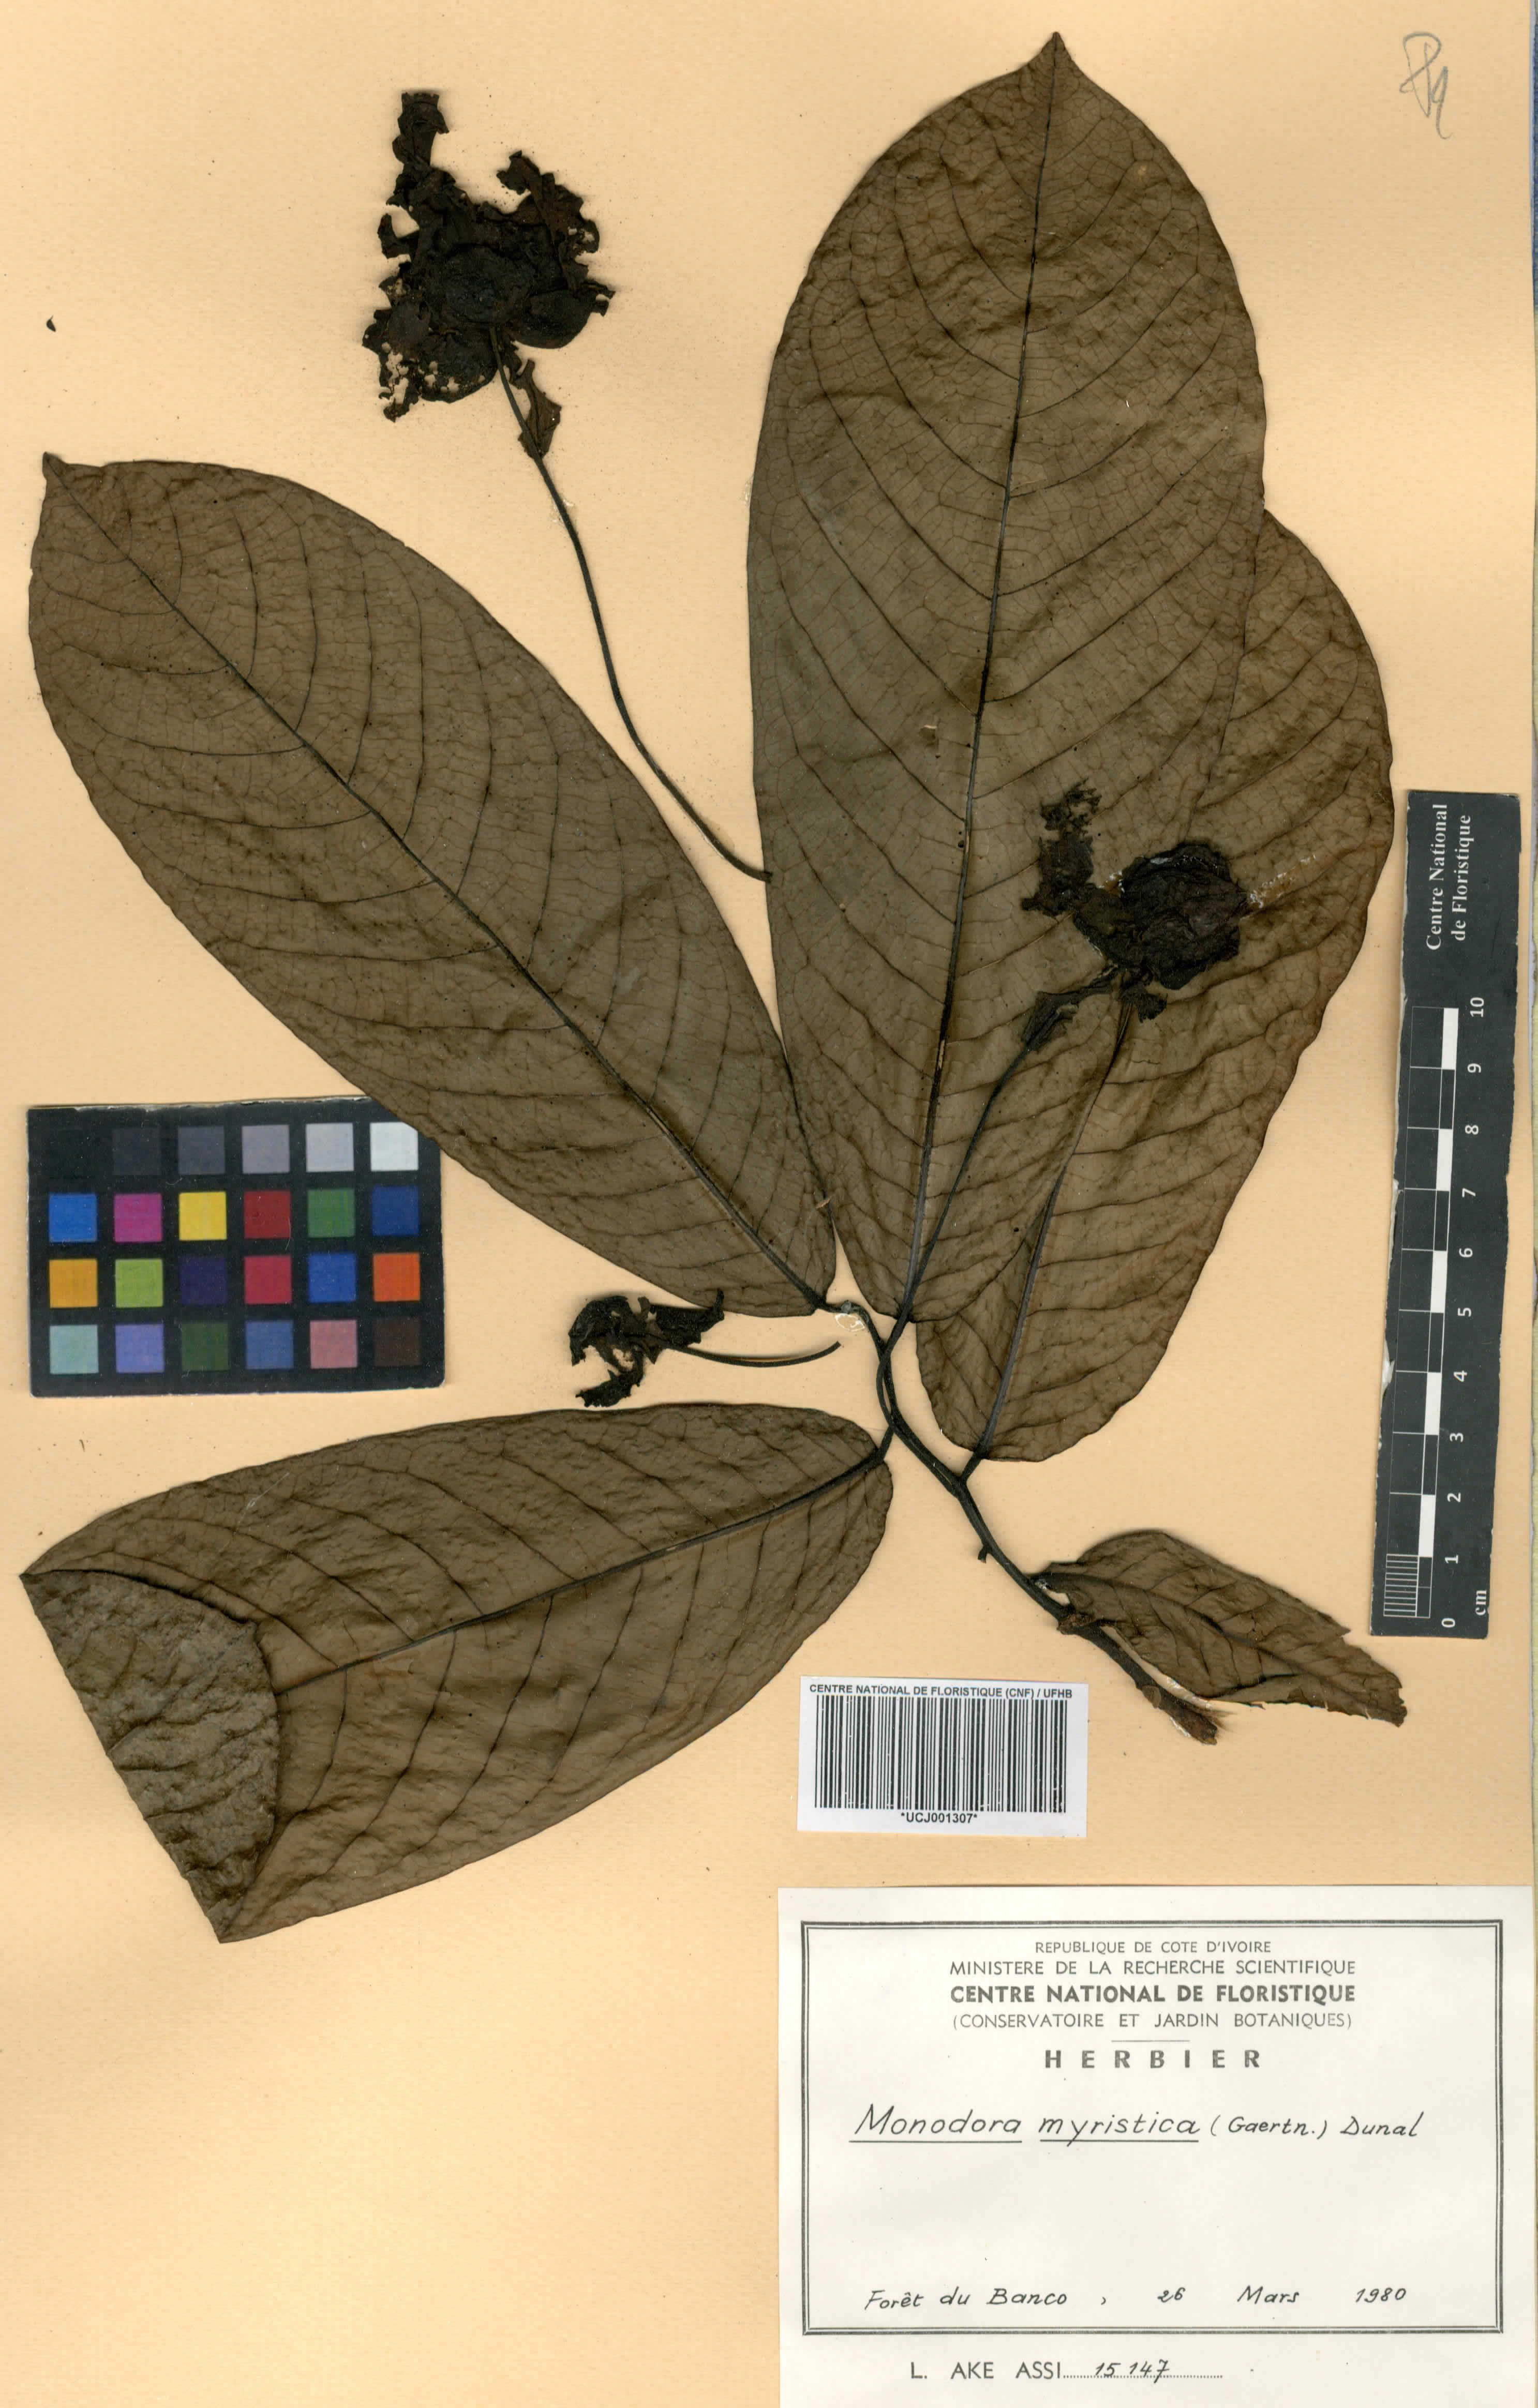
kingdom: Plantae
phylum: Tracheophyta
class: Magnoliopsida
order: Magnoliales
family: Annonaceae
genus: Monodora
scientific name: Monodora myristica
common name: African nutmeg
